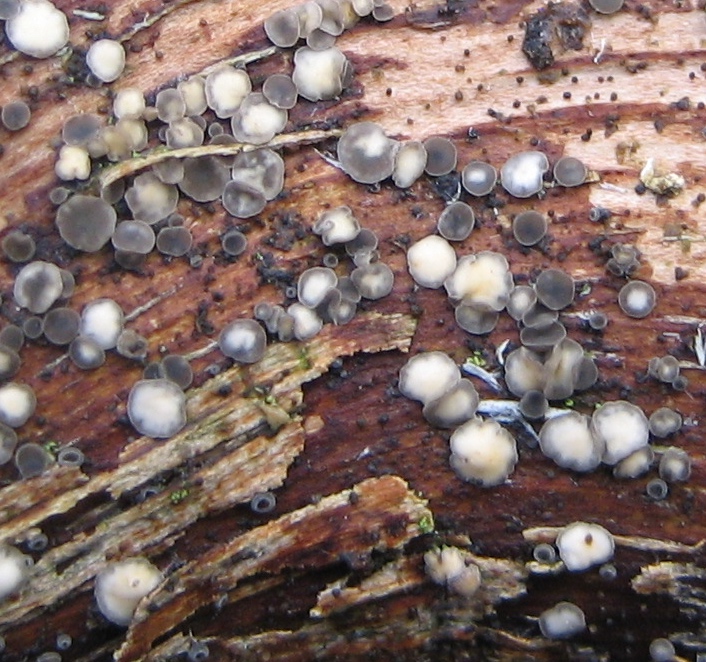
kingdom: Fungi
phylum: Ascomycota
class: Leotiomycetes
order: Helotiales
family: Mollisiaceae
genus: Belonopsis
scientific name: Belonopsis
